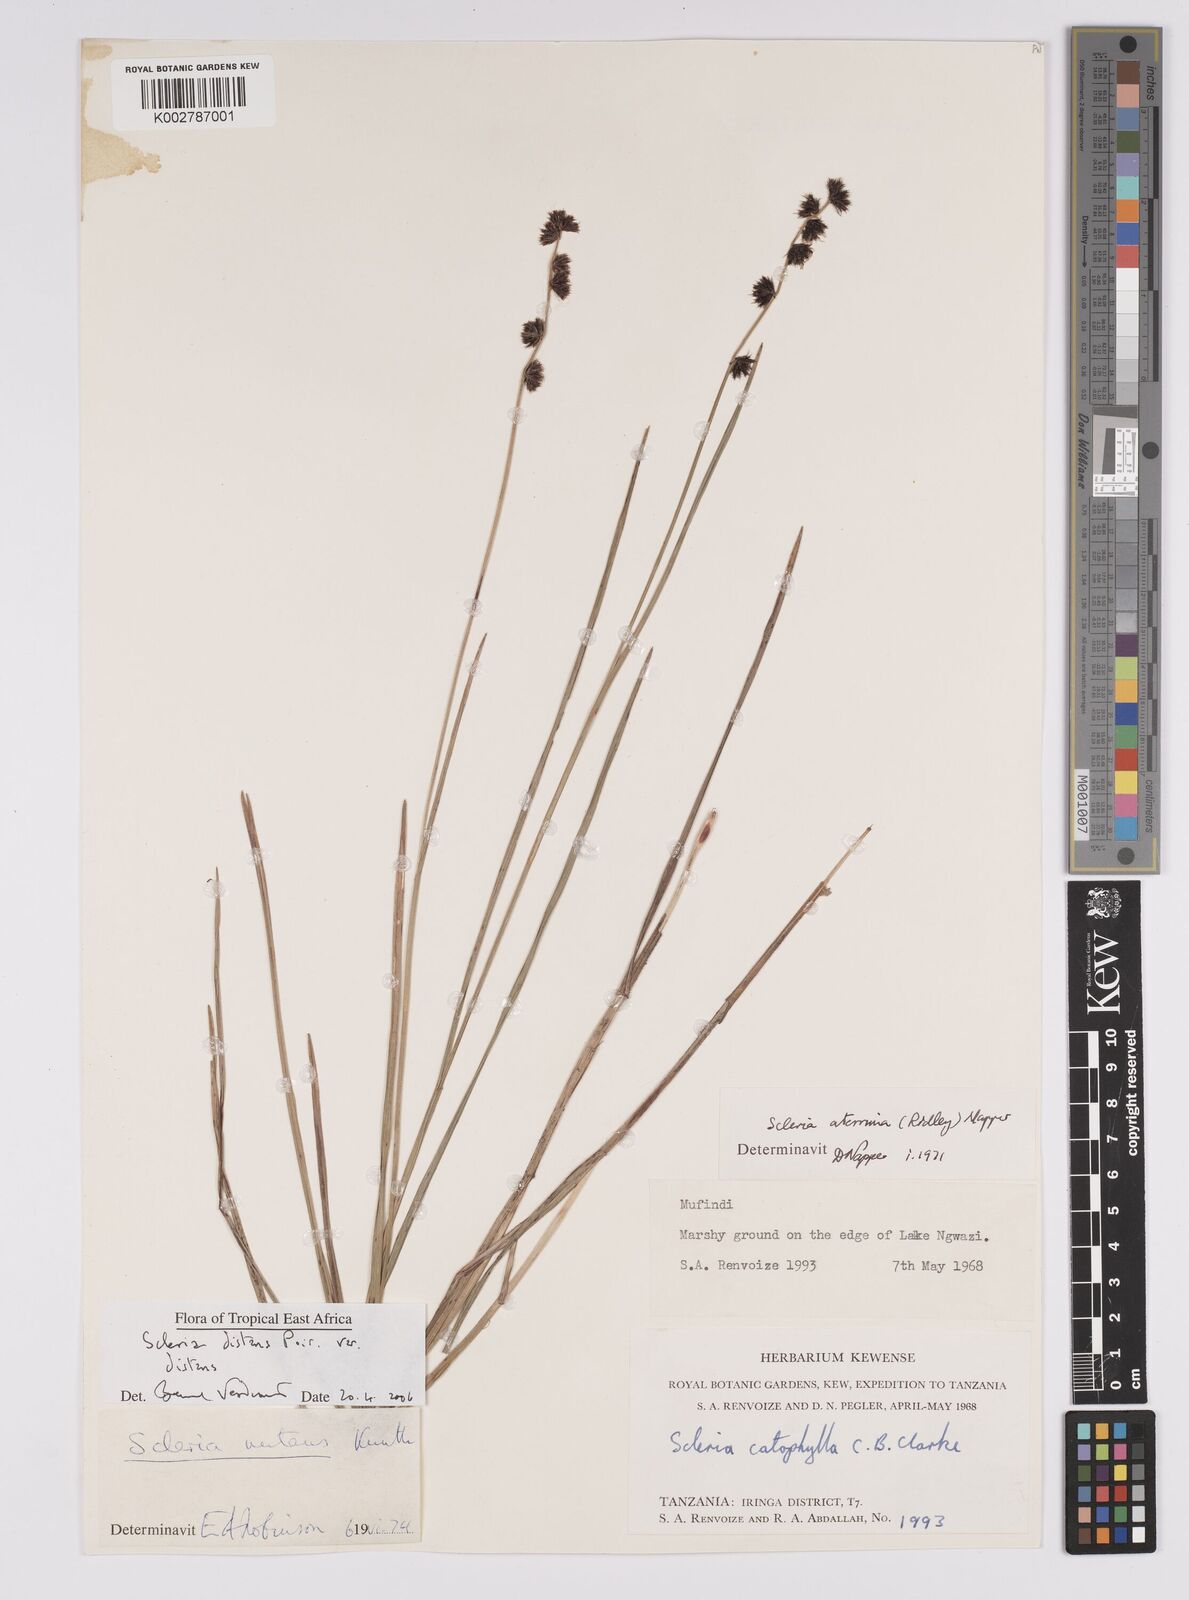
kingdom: Plantae
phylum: Tracheophyta
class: Liliopsida
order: Poales
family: Cyperaceae
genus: Scleria
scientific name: Scleria distans
